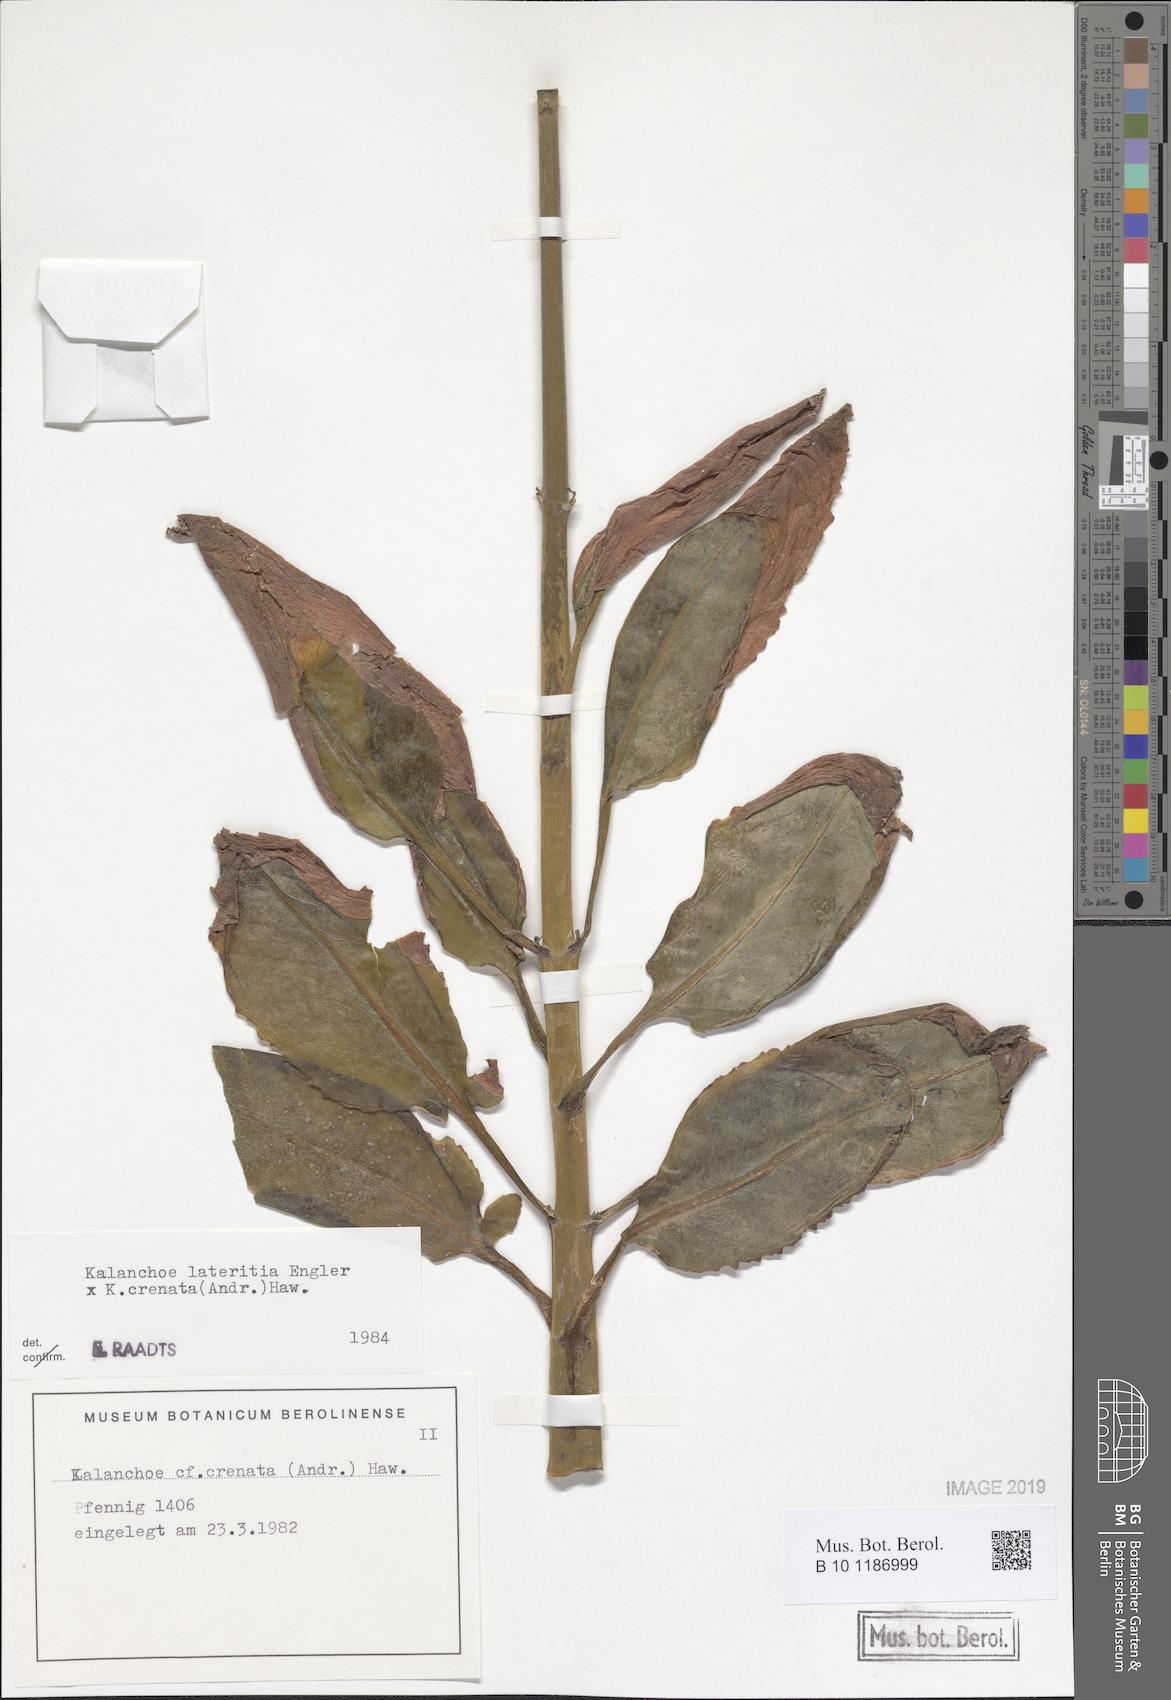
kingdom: Plantae
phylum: Tracheophyta
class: Magnoliopsida
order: Saxifragales
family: Crassulaceae
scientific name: Crassulaceae
